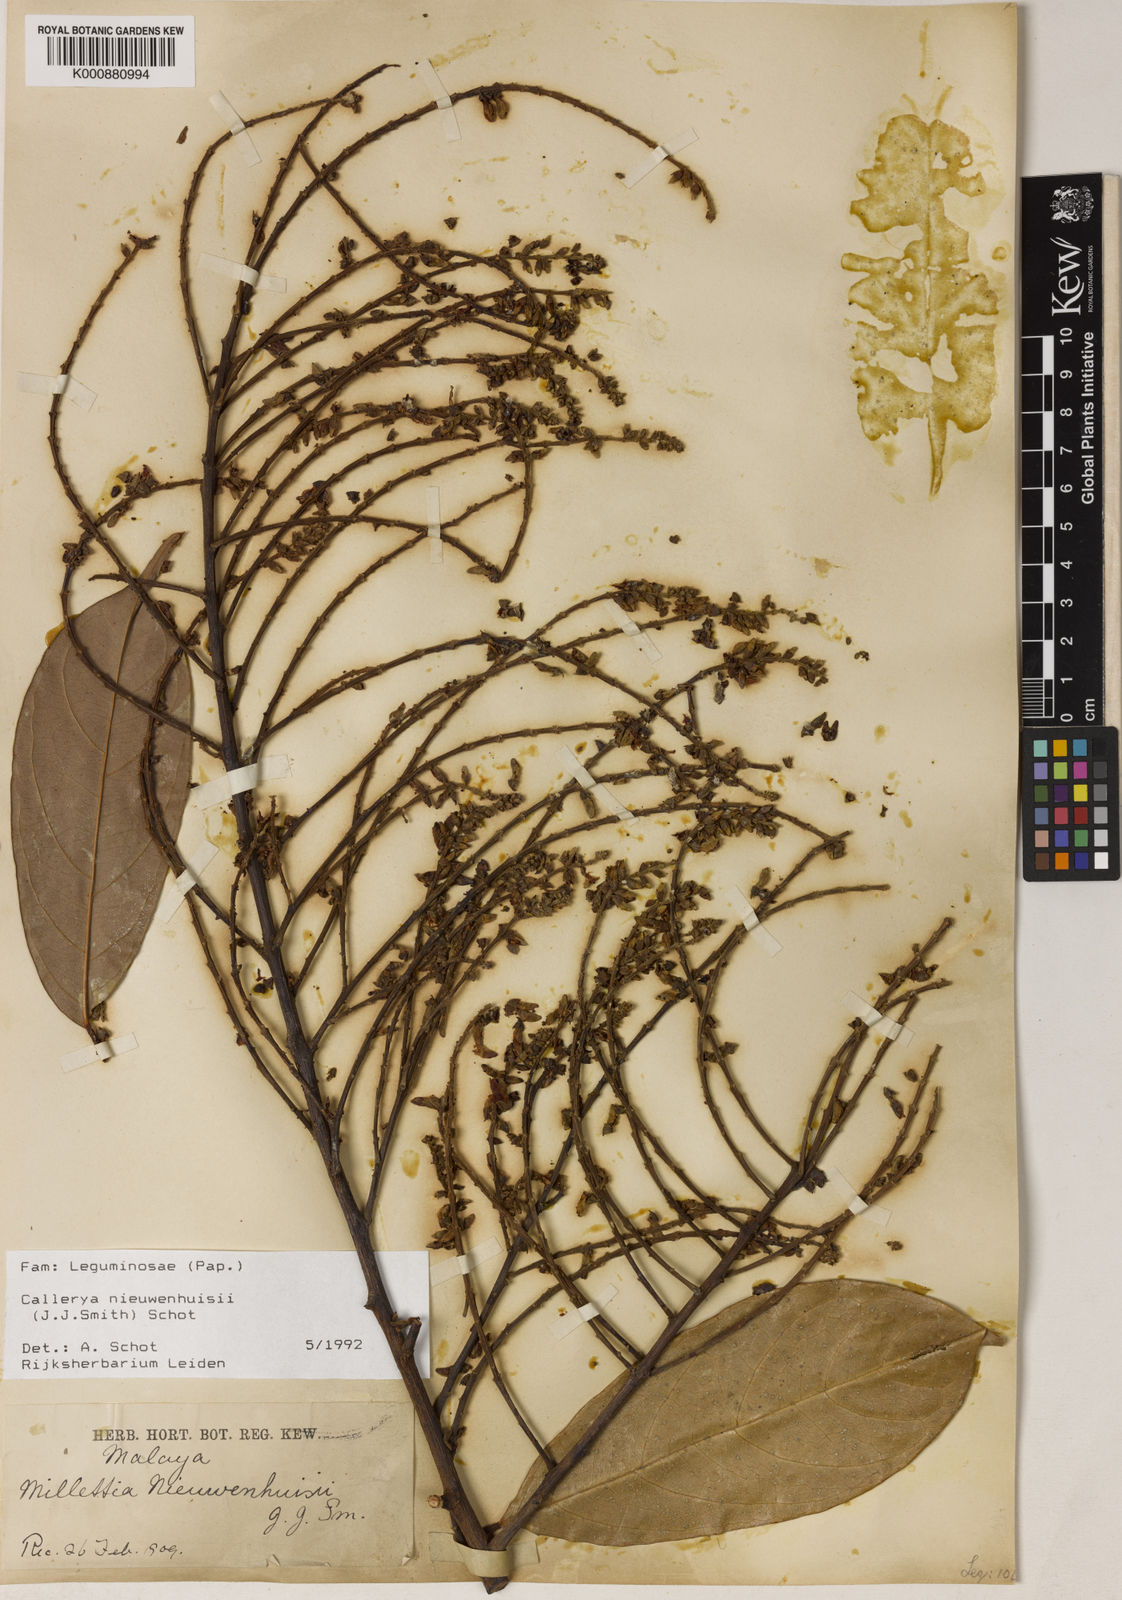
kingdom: Plantae
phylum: Tracheophyta
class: Magnoliopsida
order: Fabales
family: Fabaceae
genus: Whitfordiodendron
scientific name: Whitfordiodendron nieuwenhuisii
